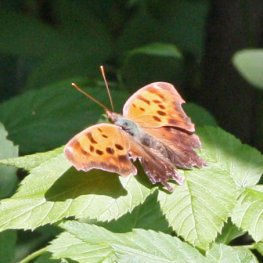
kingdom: Animalia
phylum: Arthropoda
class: Insecta
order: Lepidoptera
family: Nymphalidae
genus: Polygonia
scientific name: Polygonia interrogationis
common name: Question Mark
